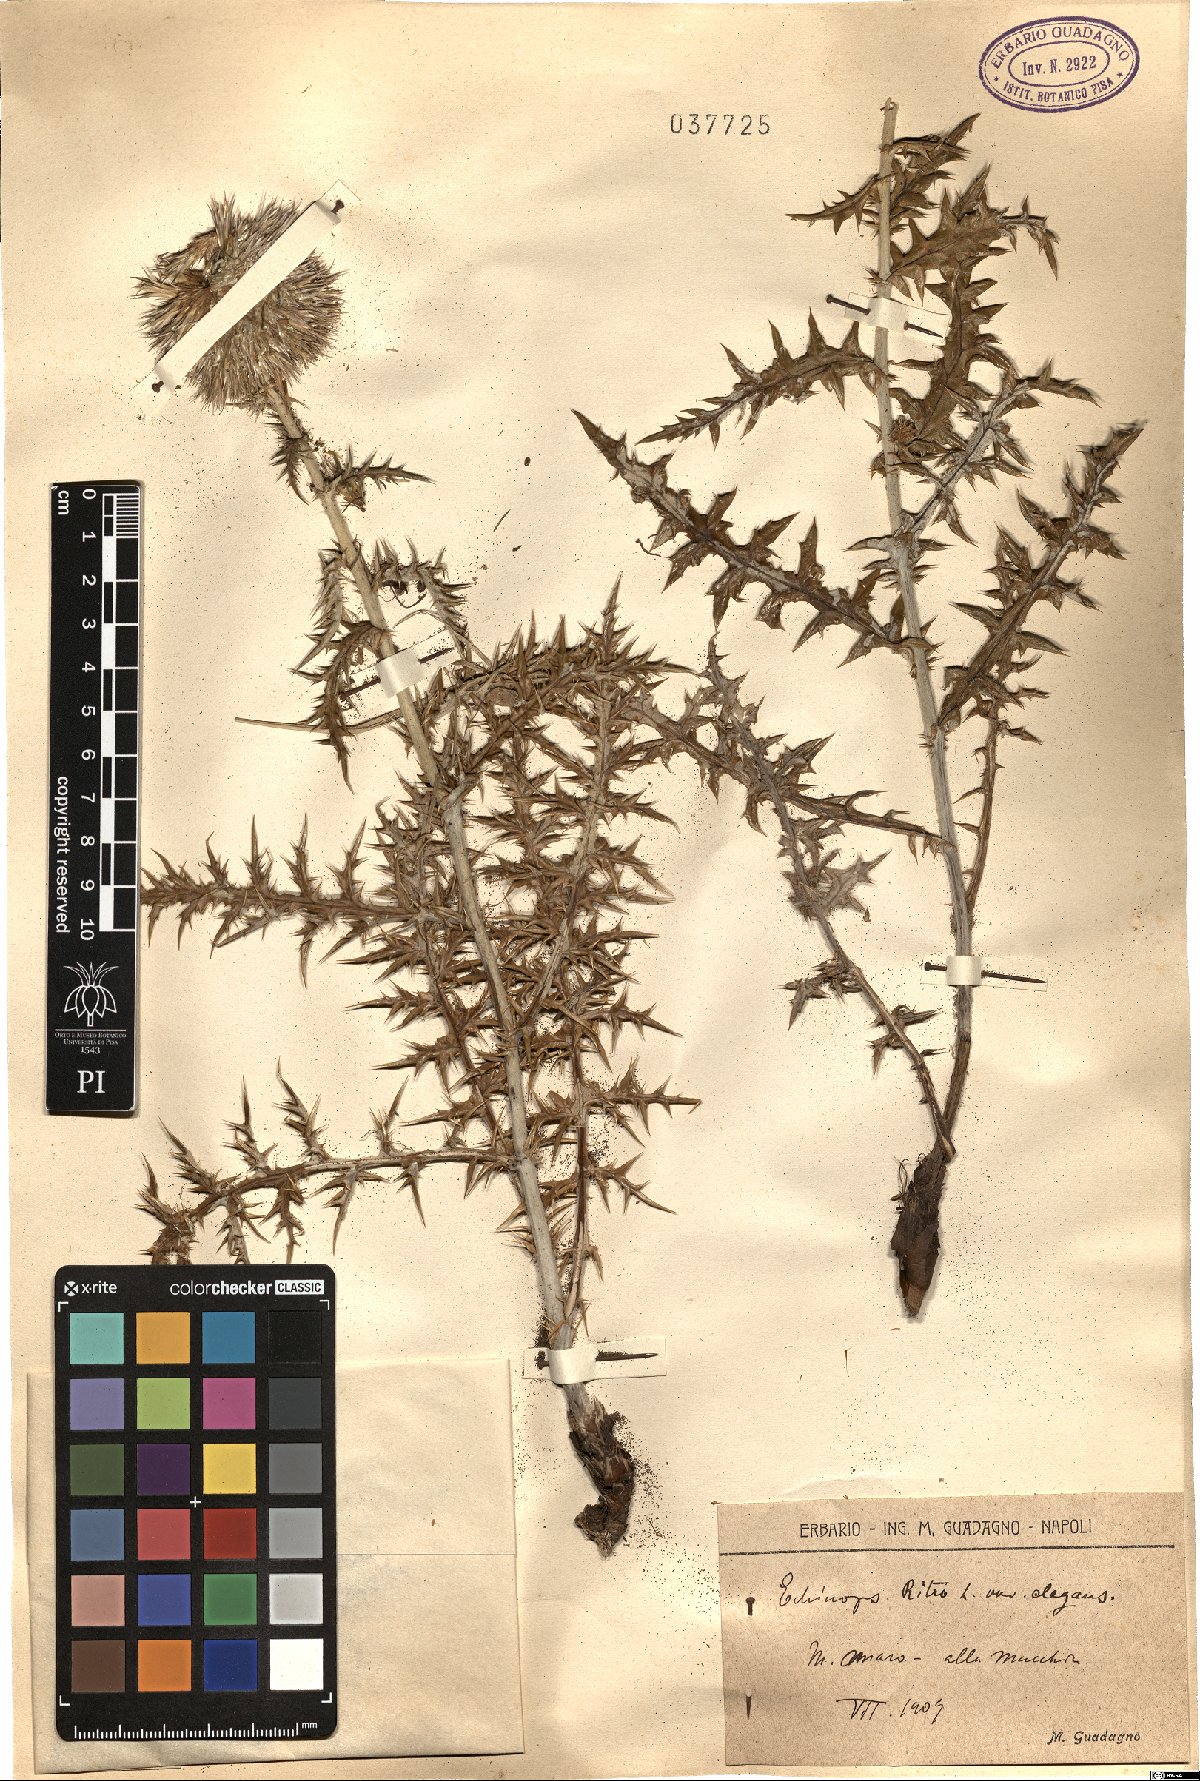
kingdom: Plantae
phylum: Tracheophyta
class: Magnoliopsida
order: Asterales
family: Asteraceae
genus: Echinops
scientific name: Echinops ritro
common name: Globe thistle
